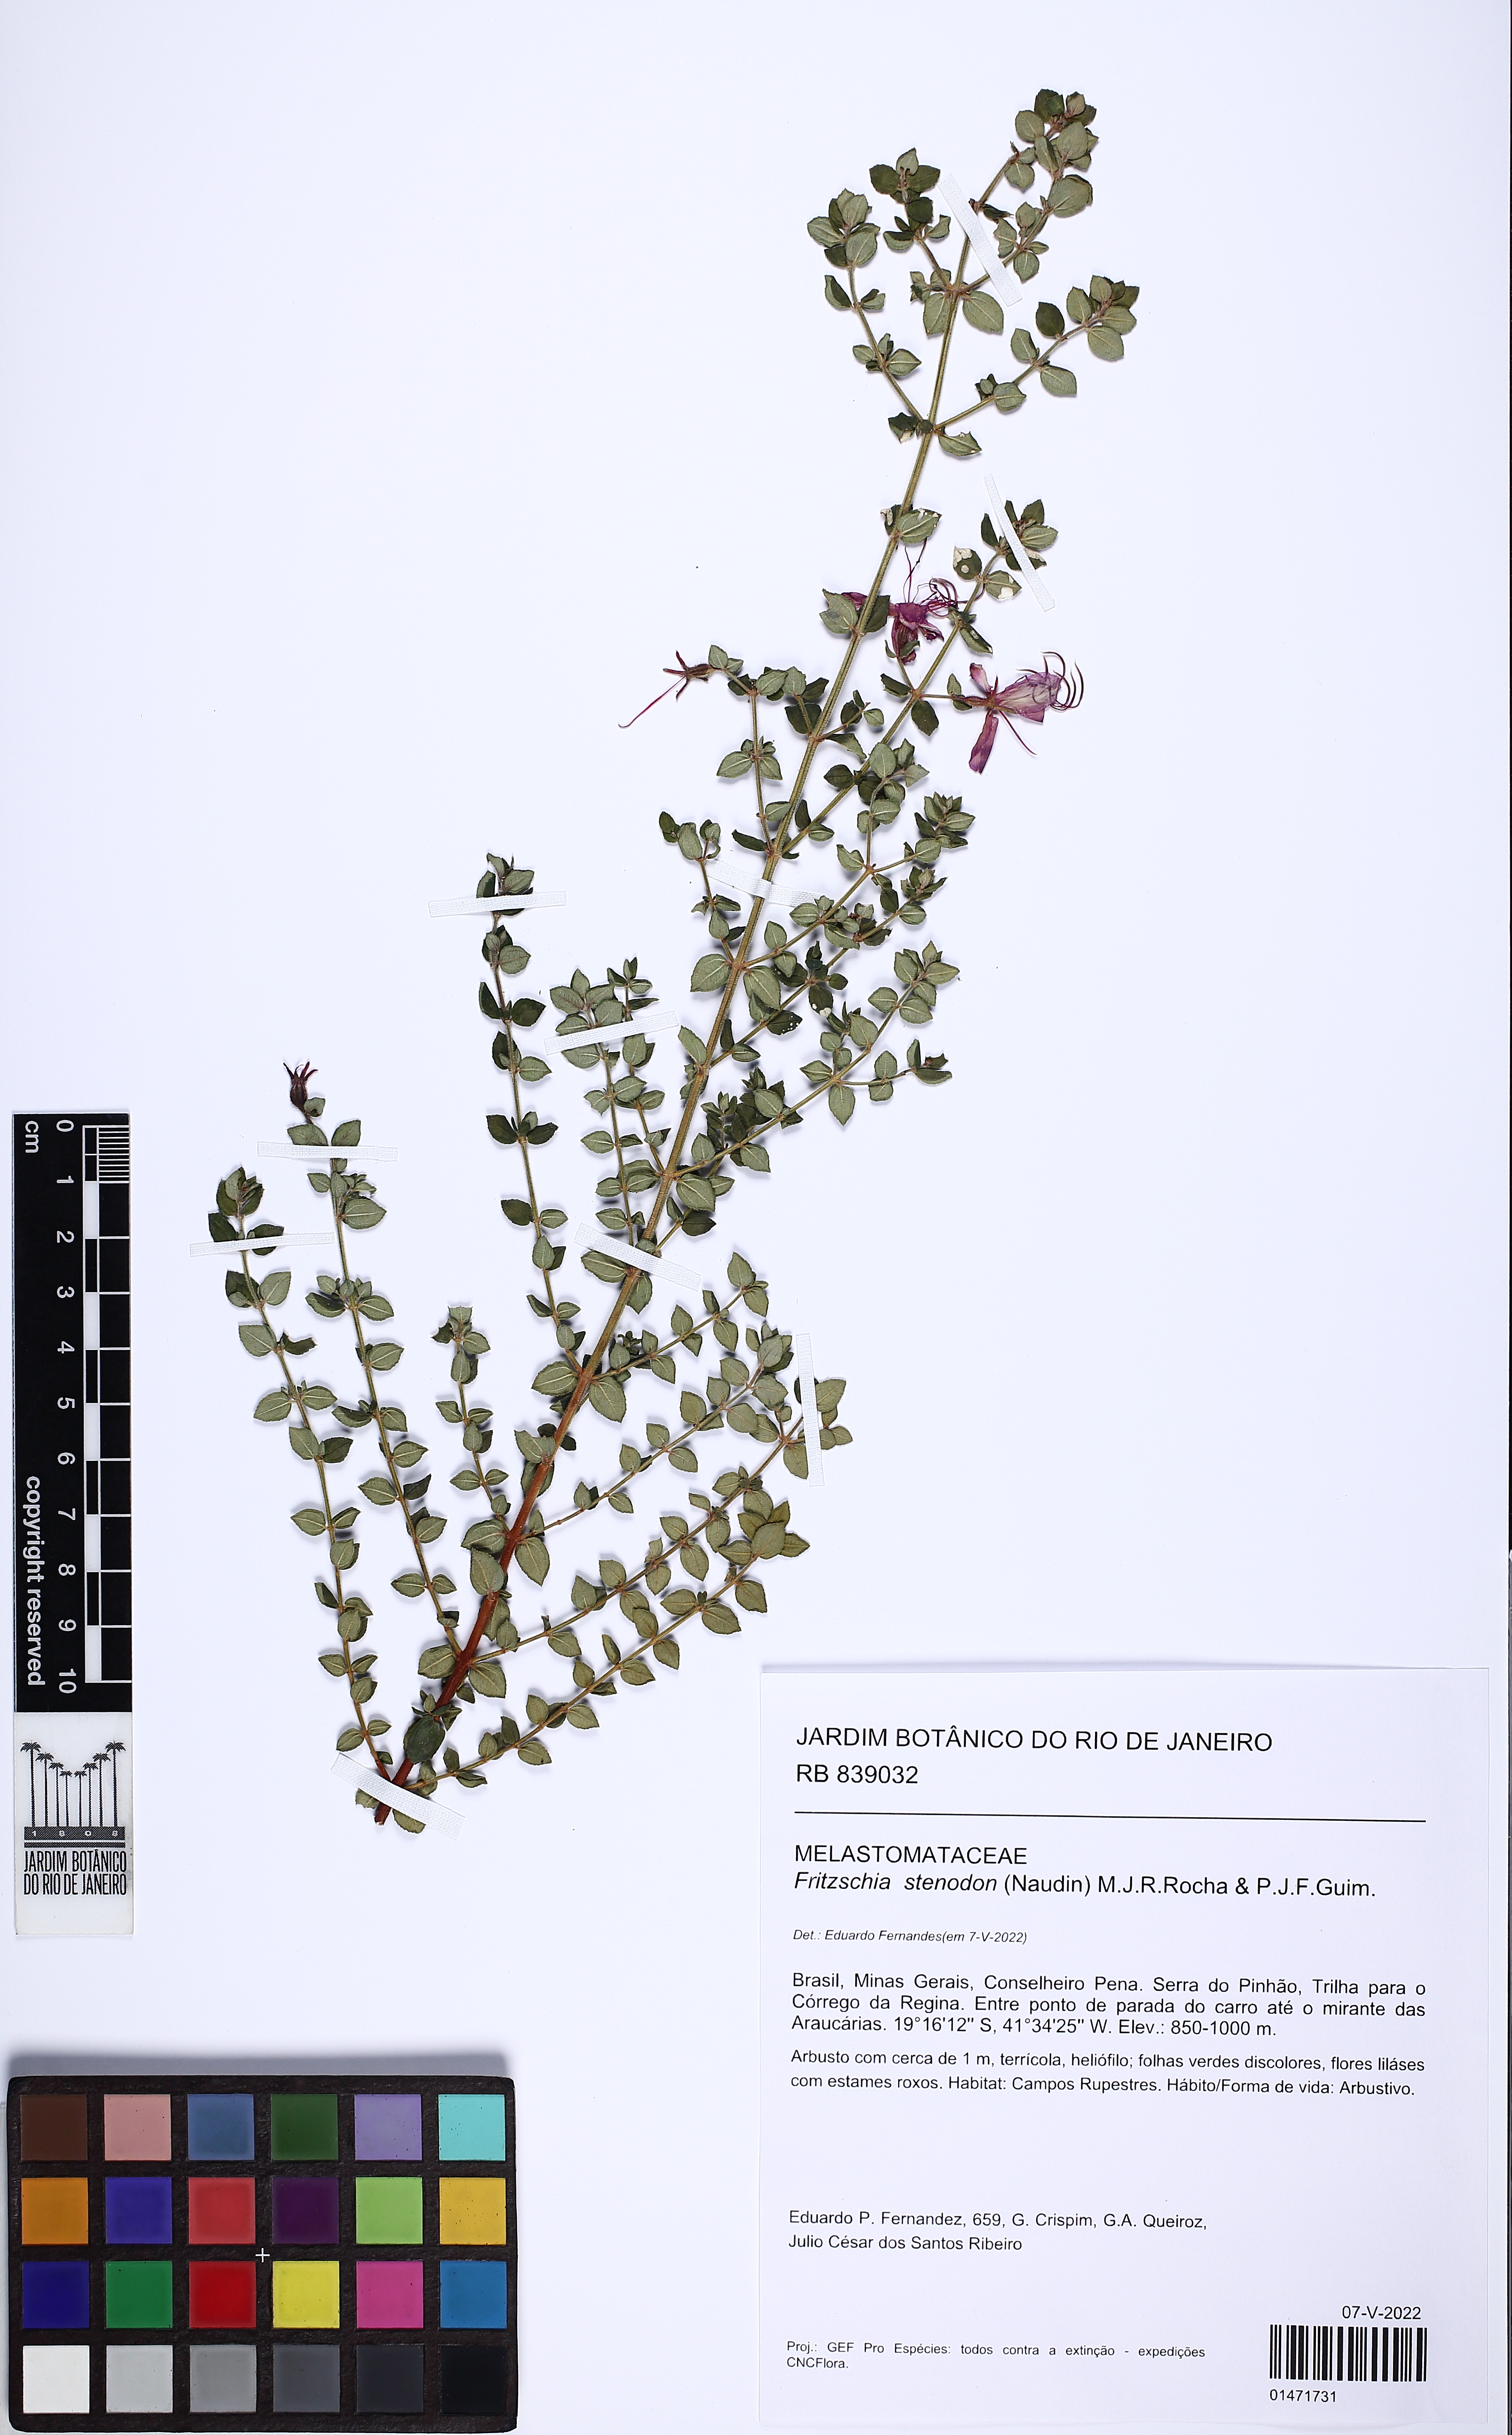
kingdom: Plantae
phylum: Tracheophyta
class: Magnoliopsida
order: Myrtales
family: Melastomataceae
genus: Fritzschia
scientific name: Fritzschia stenodon
